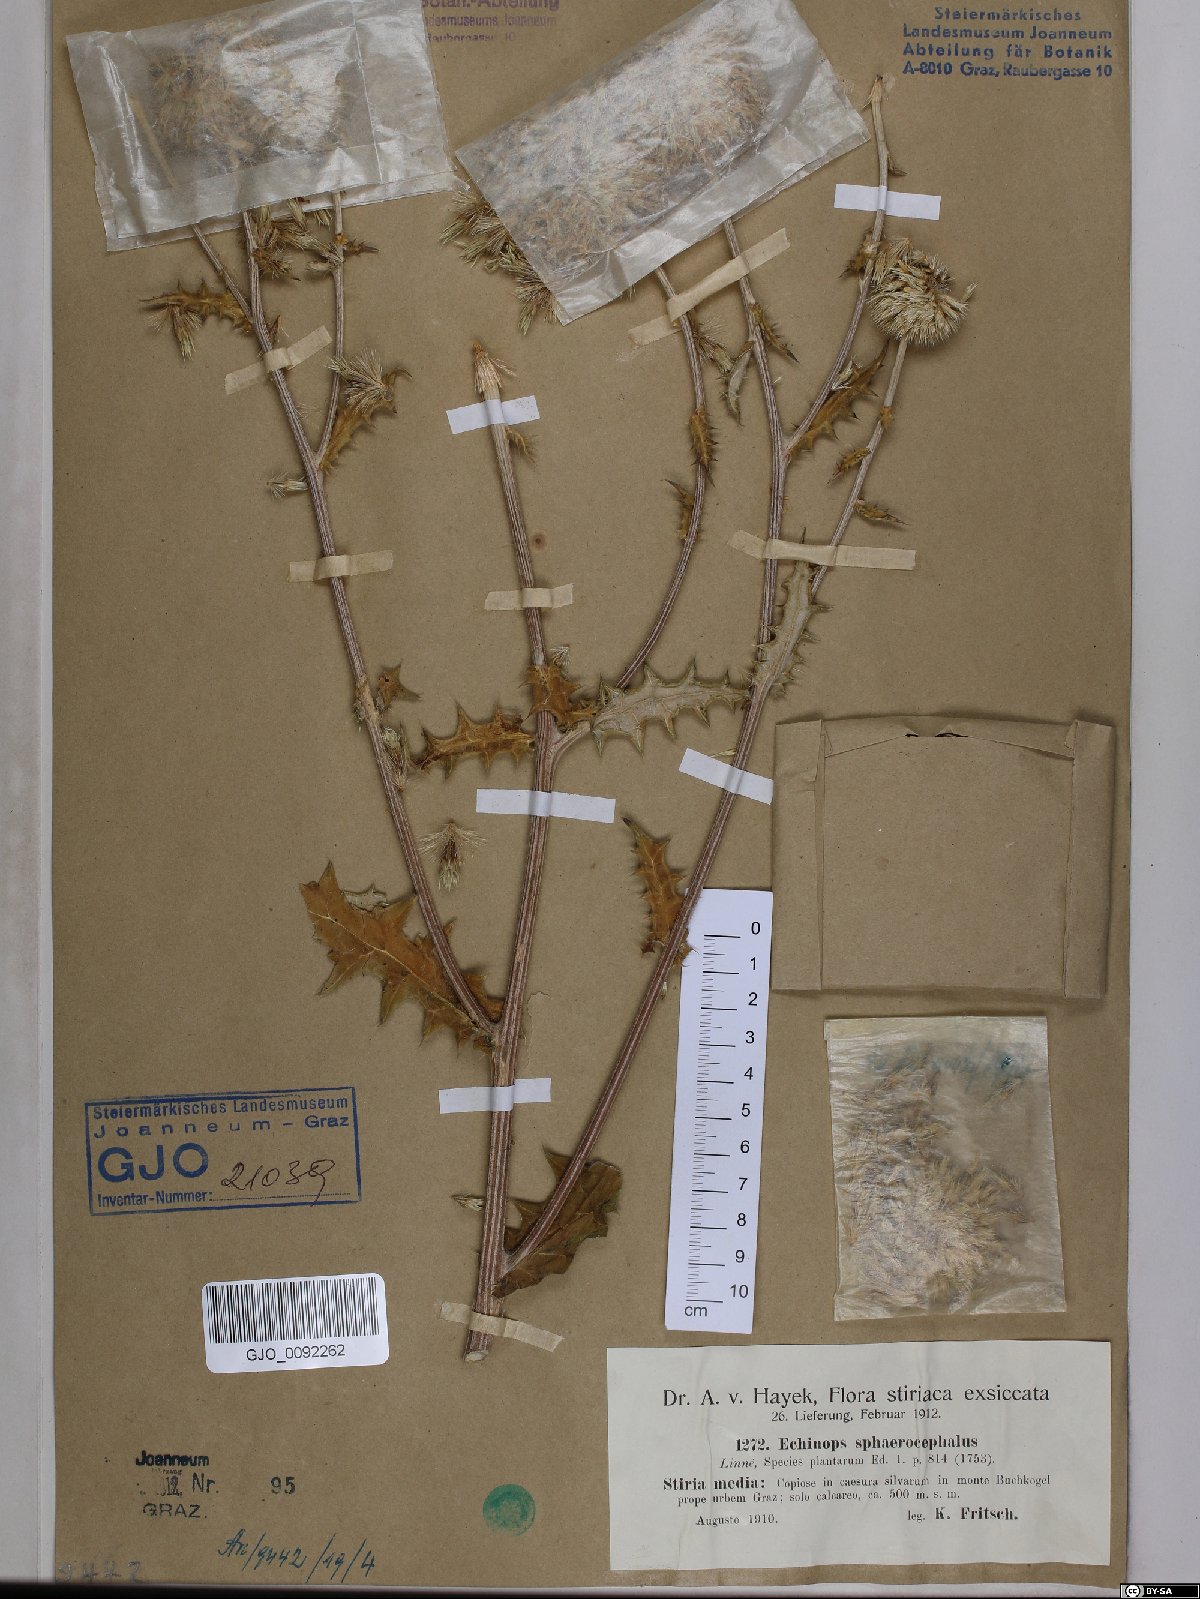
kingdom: Plantae
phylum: Tracheophyta
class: Magnoliopsida
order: Asterales
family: Asteraceae
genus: Echinops
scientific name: Echinops sphaerocephalus
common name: Glandular globe-thistle
